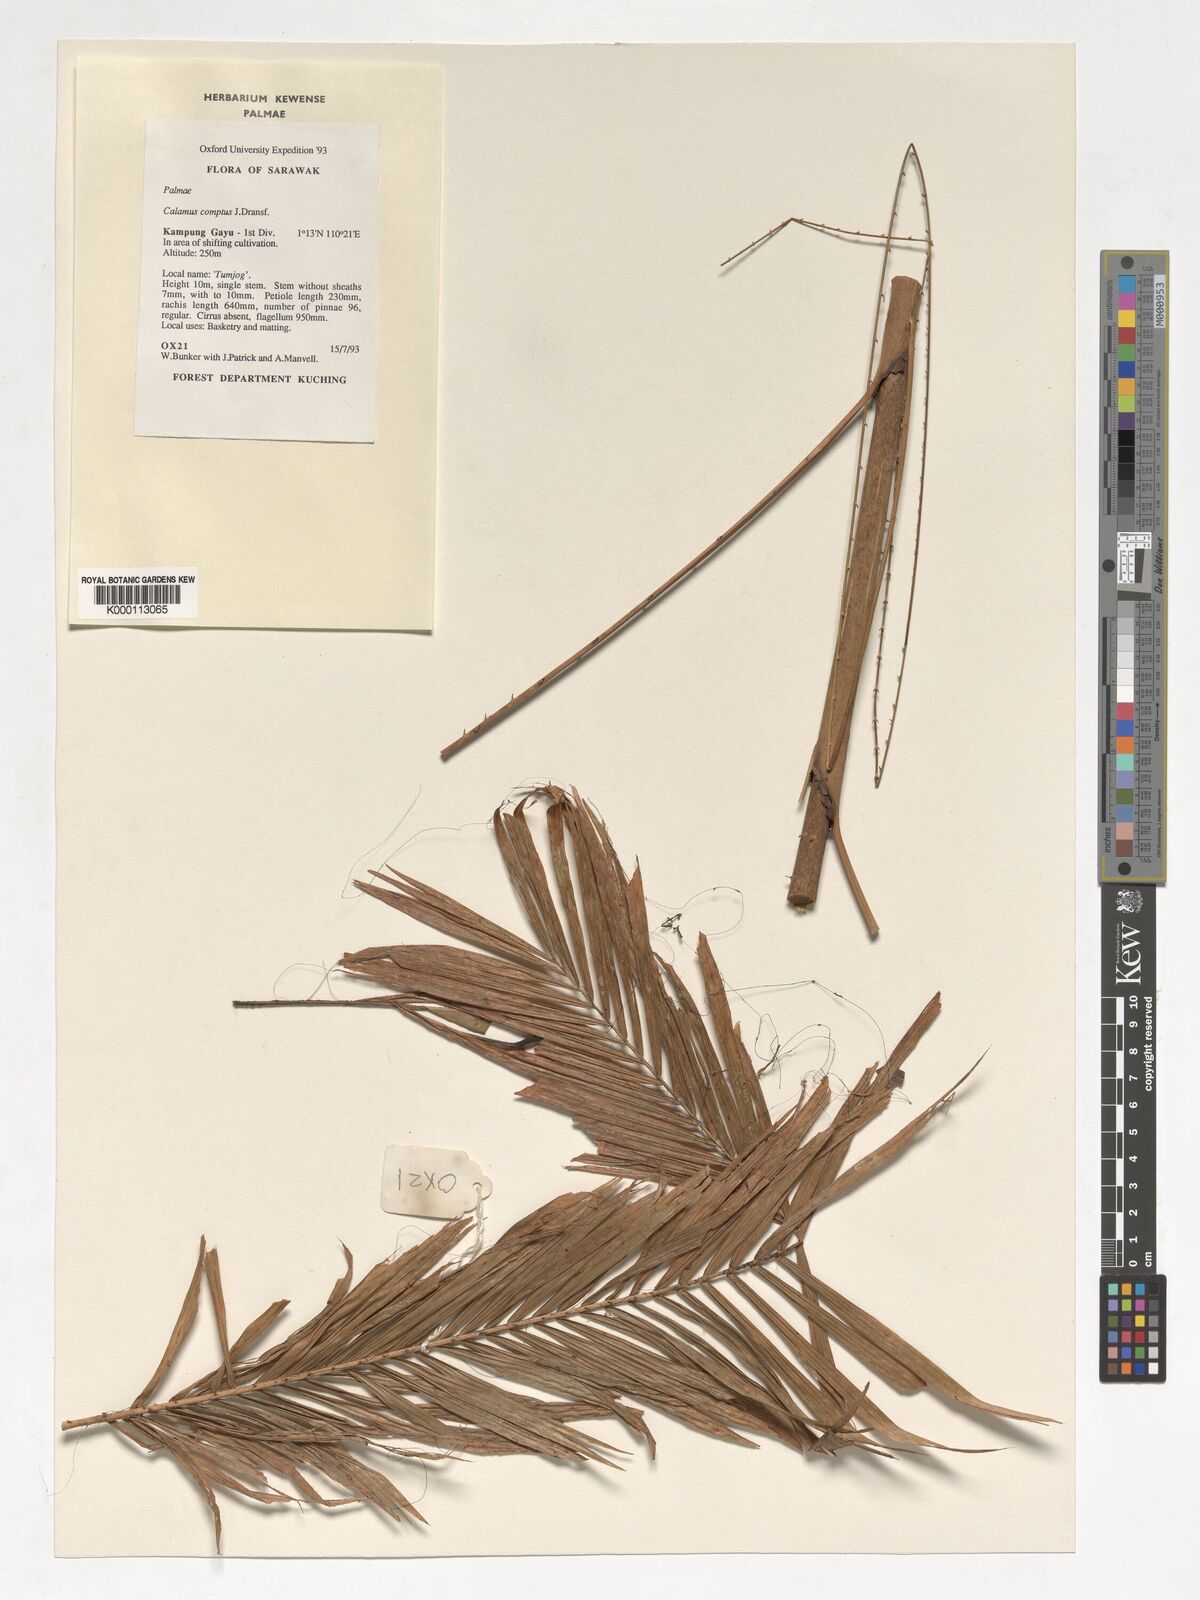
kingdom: Plantae
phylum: Tracheophyta
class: Liliopsida
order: Arecales
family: Arecaceae
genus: Calamus
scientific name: Calamus comptus
